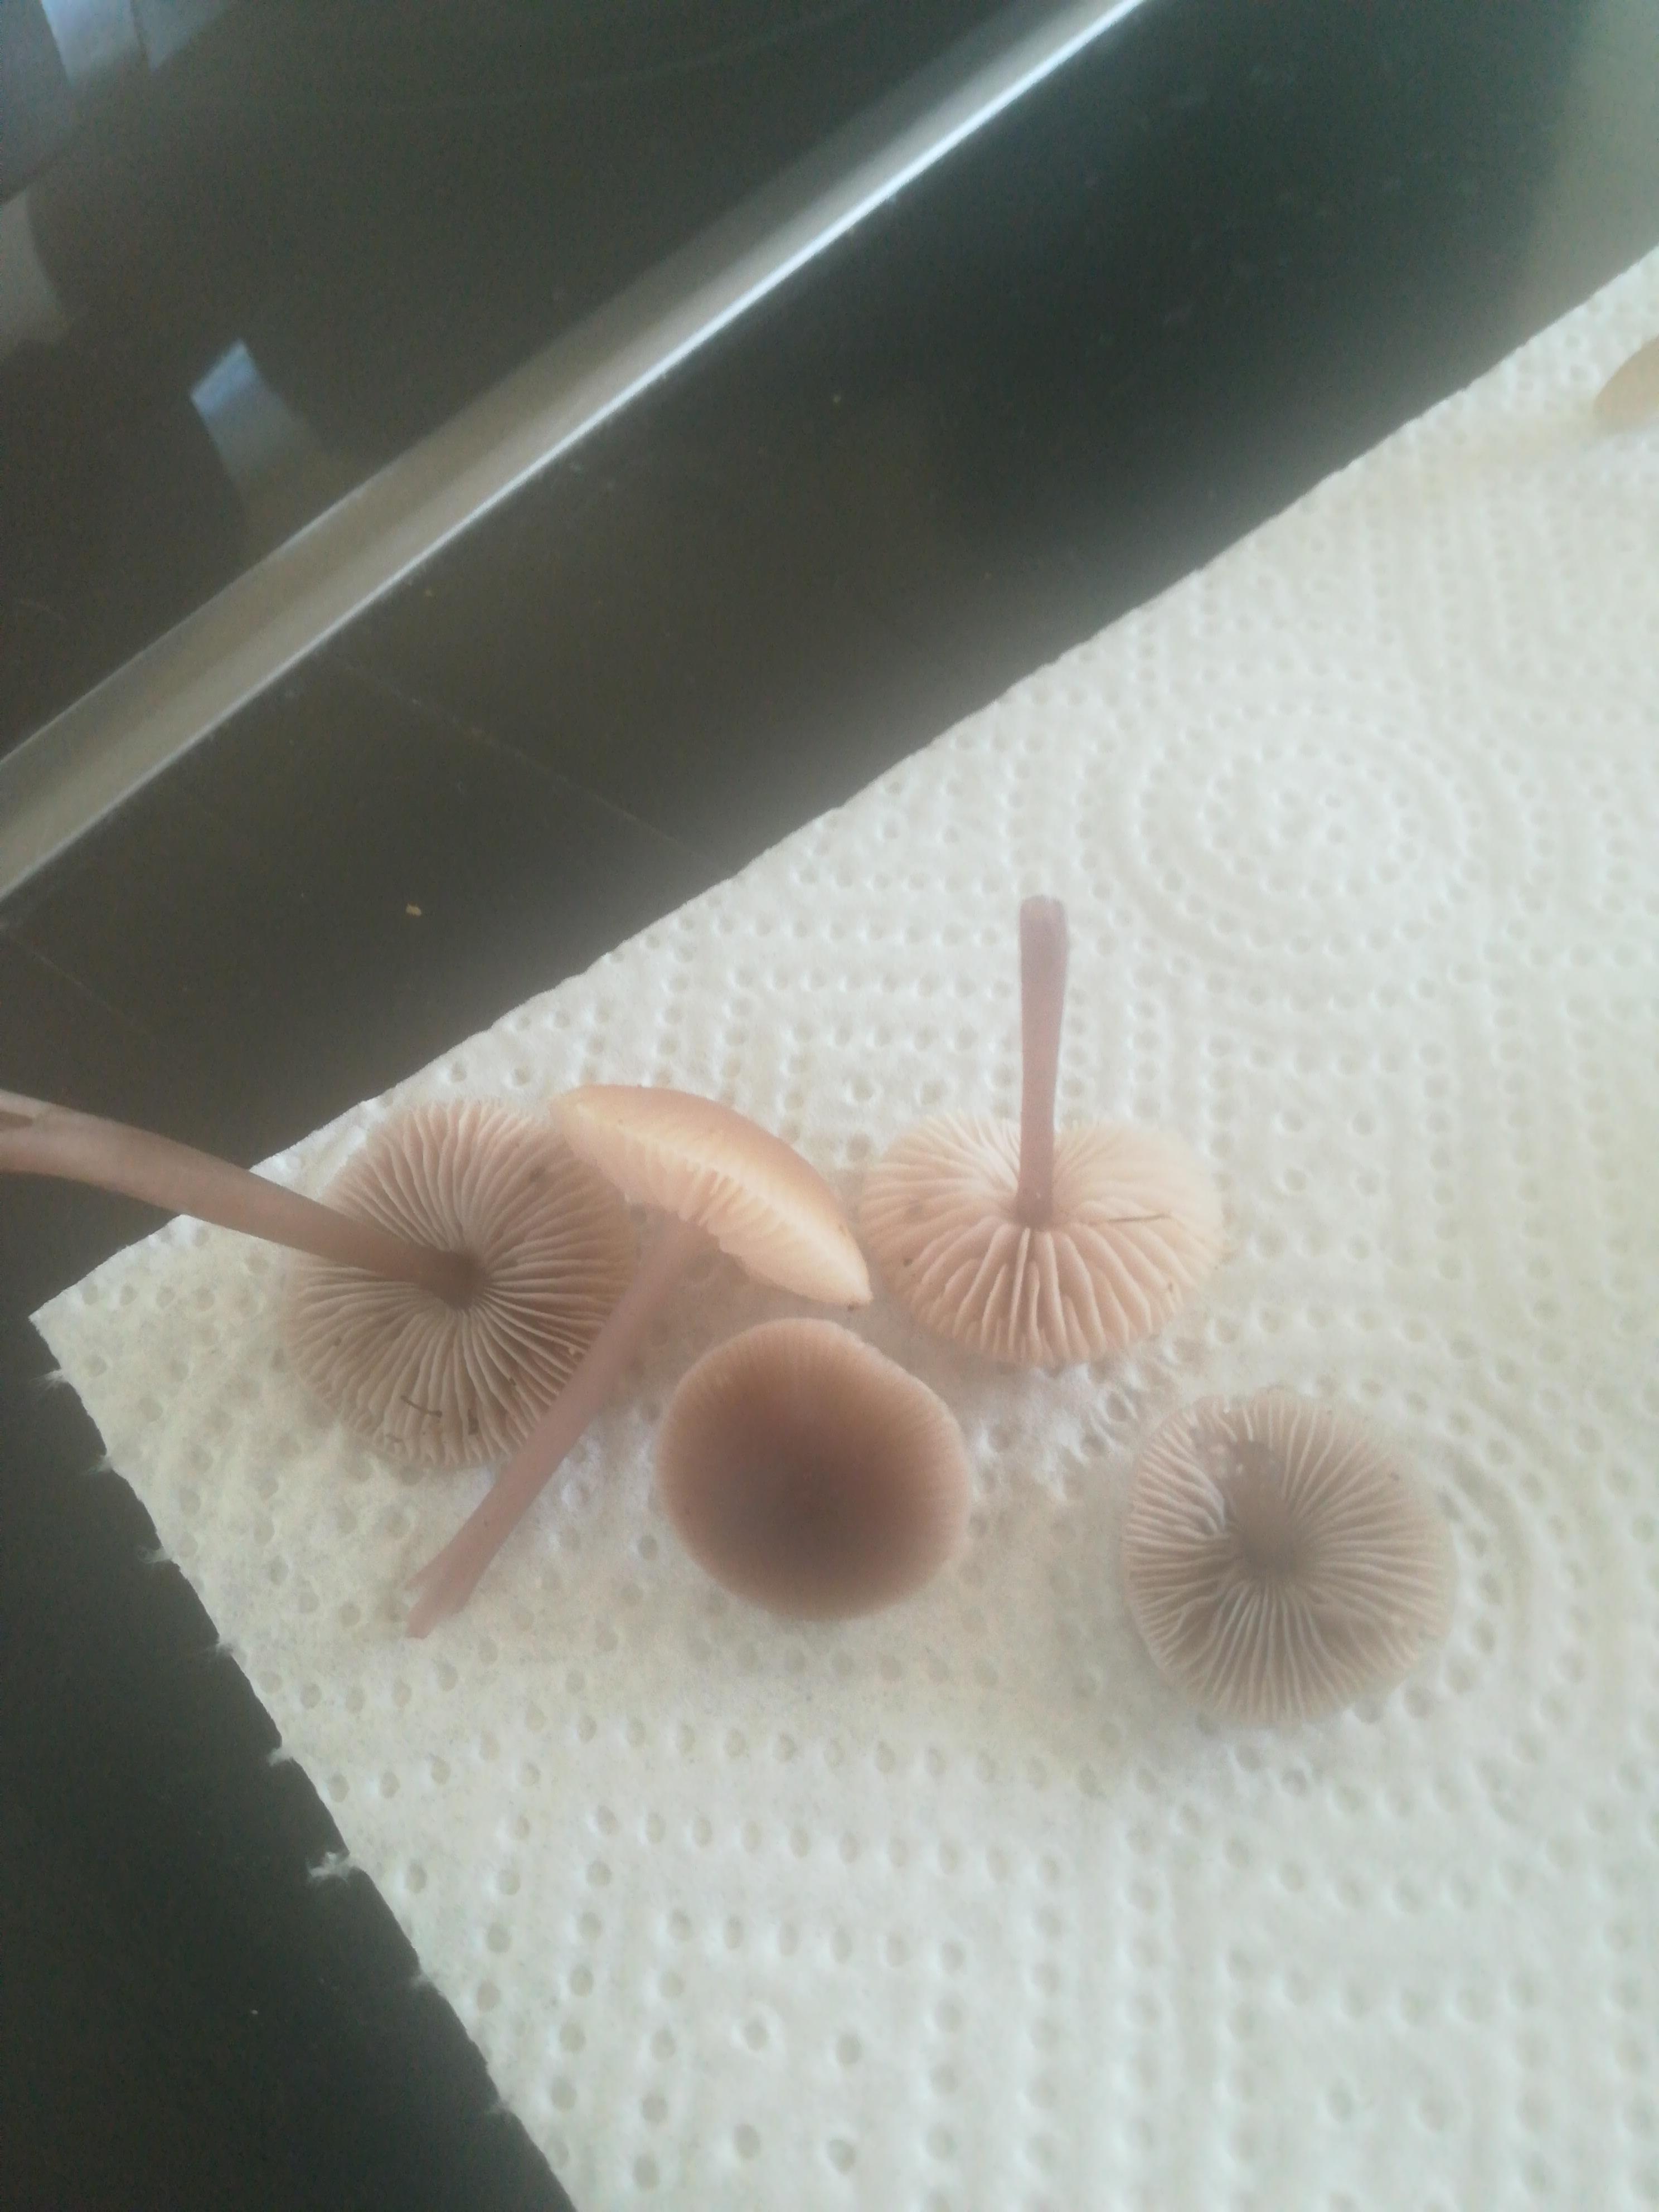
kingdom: Fungi
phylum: Basidiomycota
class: Agaricomycetes
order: Agaricales
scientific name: Agaricales
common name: champignonordenen
